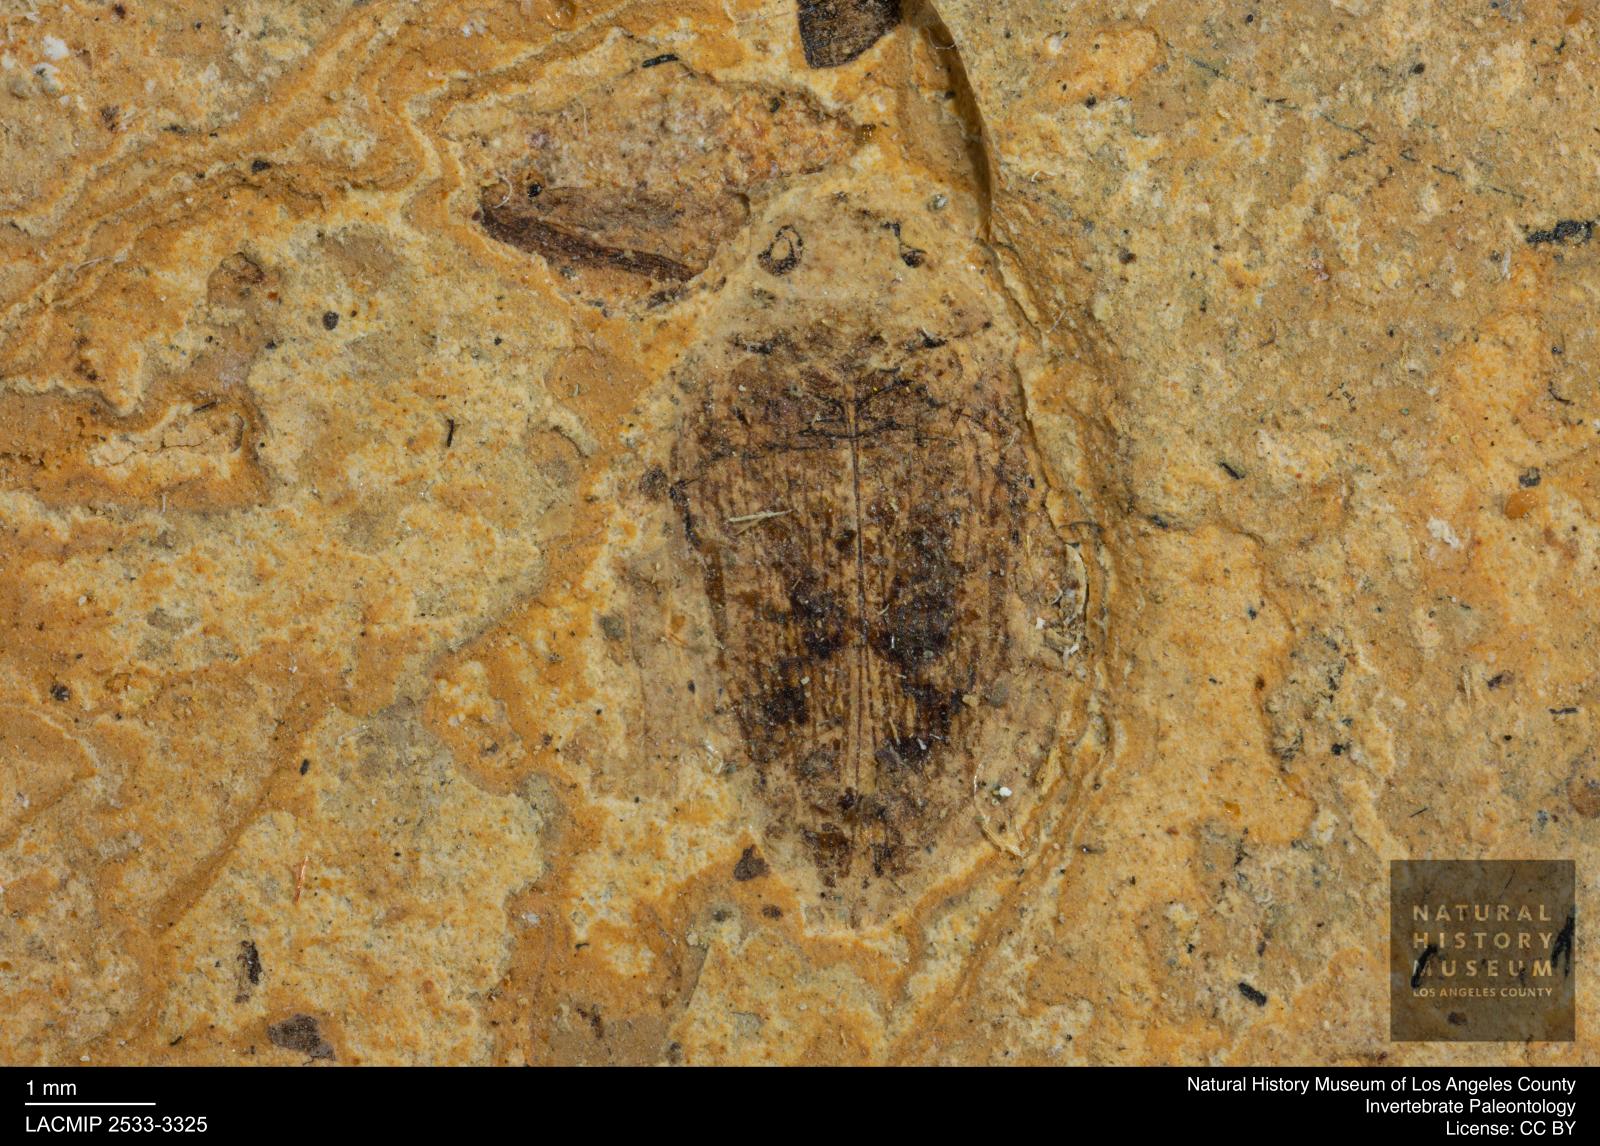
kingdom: Animalia
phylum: Arthropoda
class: Insecta
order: Coleoptera
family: Dytiscidae
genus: Laccophilus
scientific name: Laccophilus Palaeogyrinus strigatus
